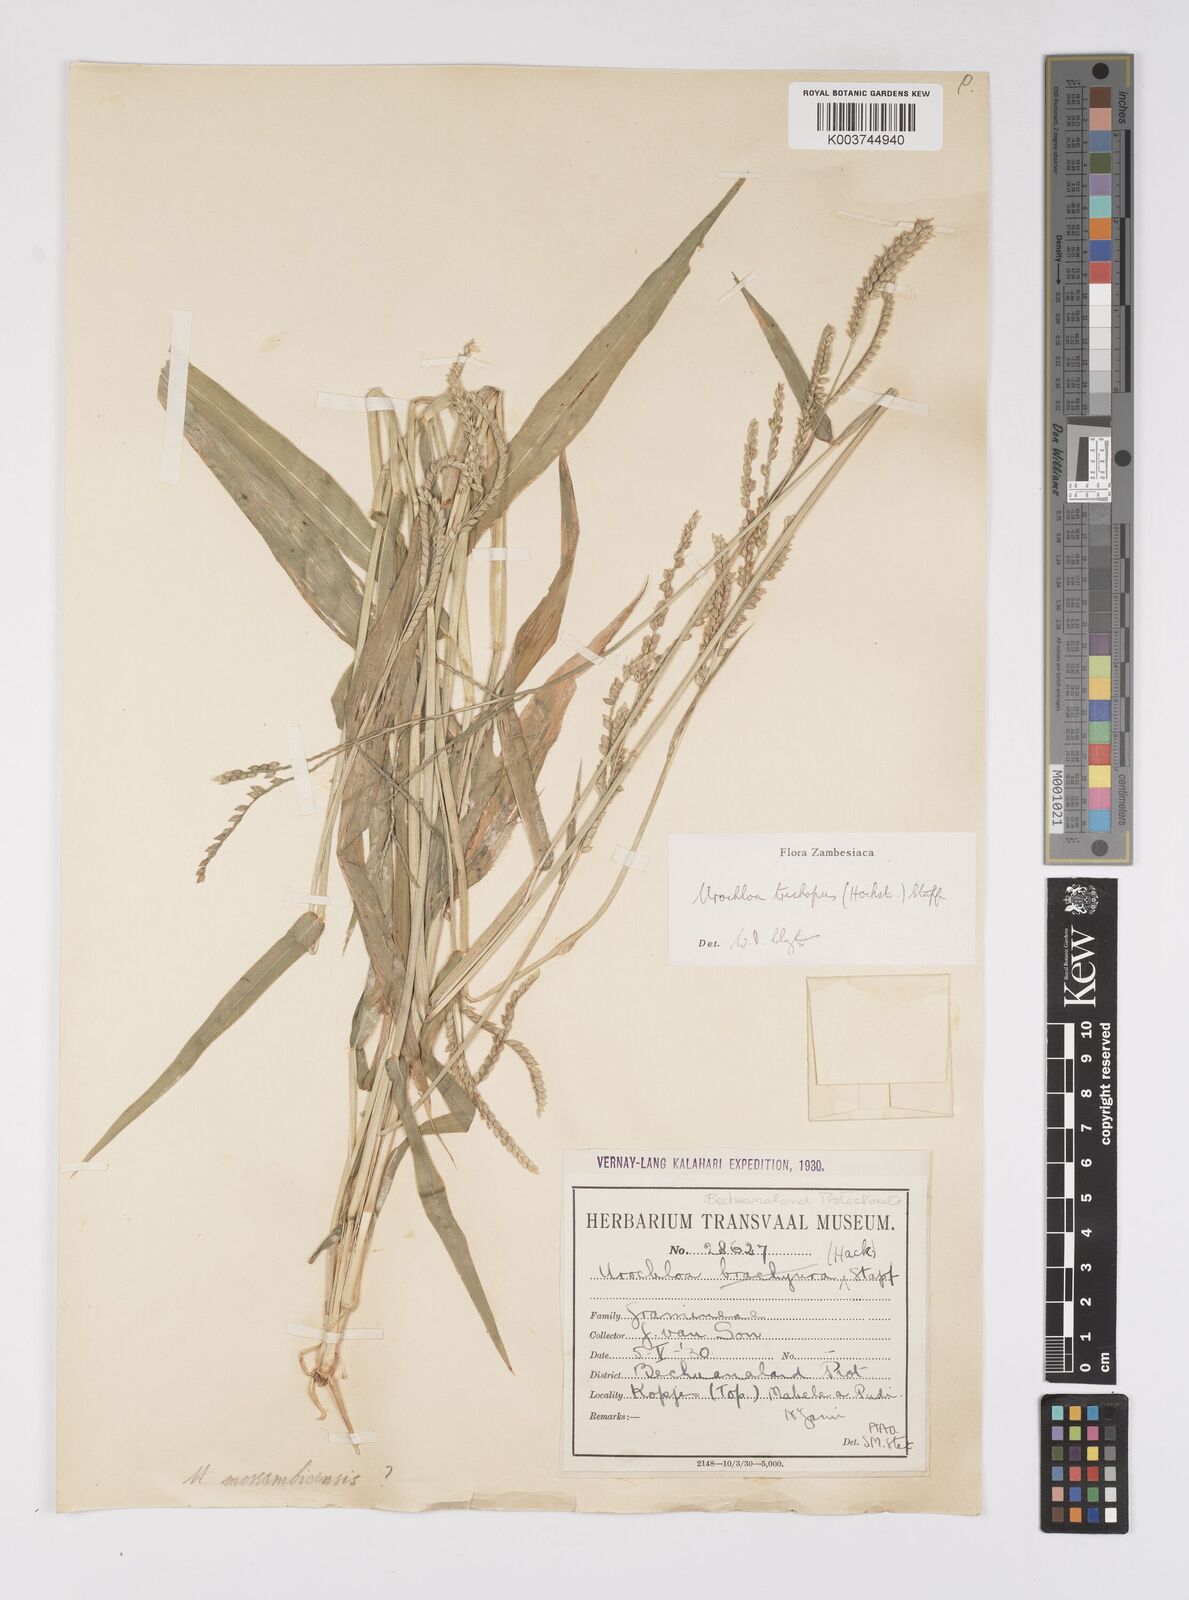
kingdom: Plantae
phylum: Tracheophyta
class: Liliopsida
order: Poales
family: Poaceae
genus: Urochloa
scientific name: Urochloa trichopus
